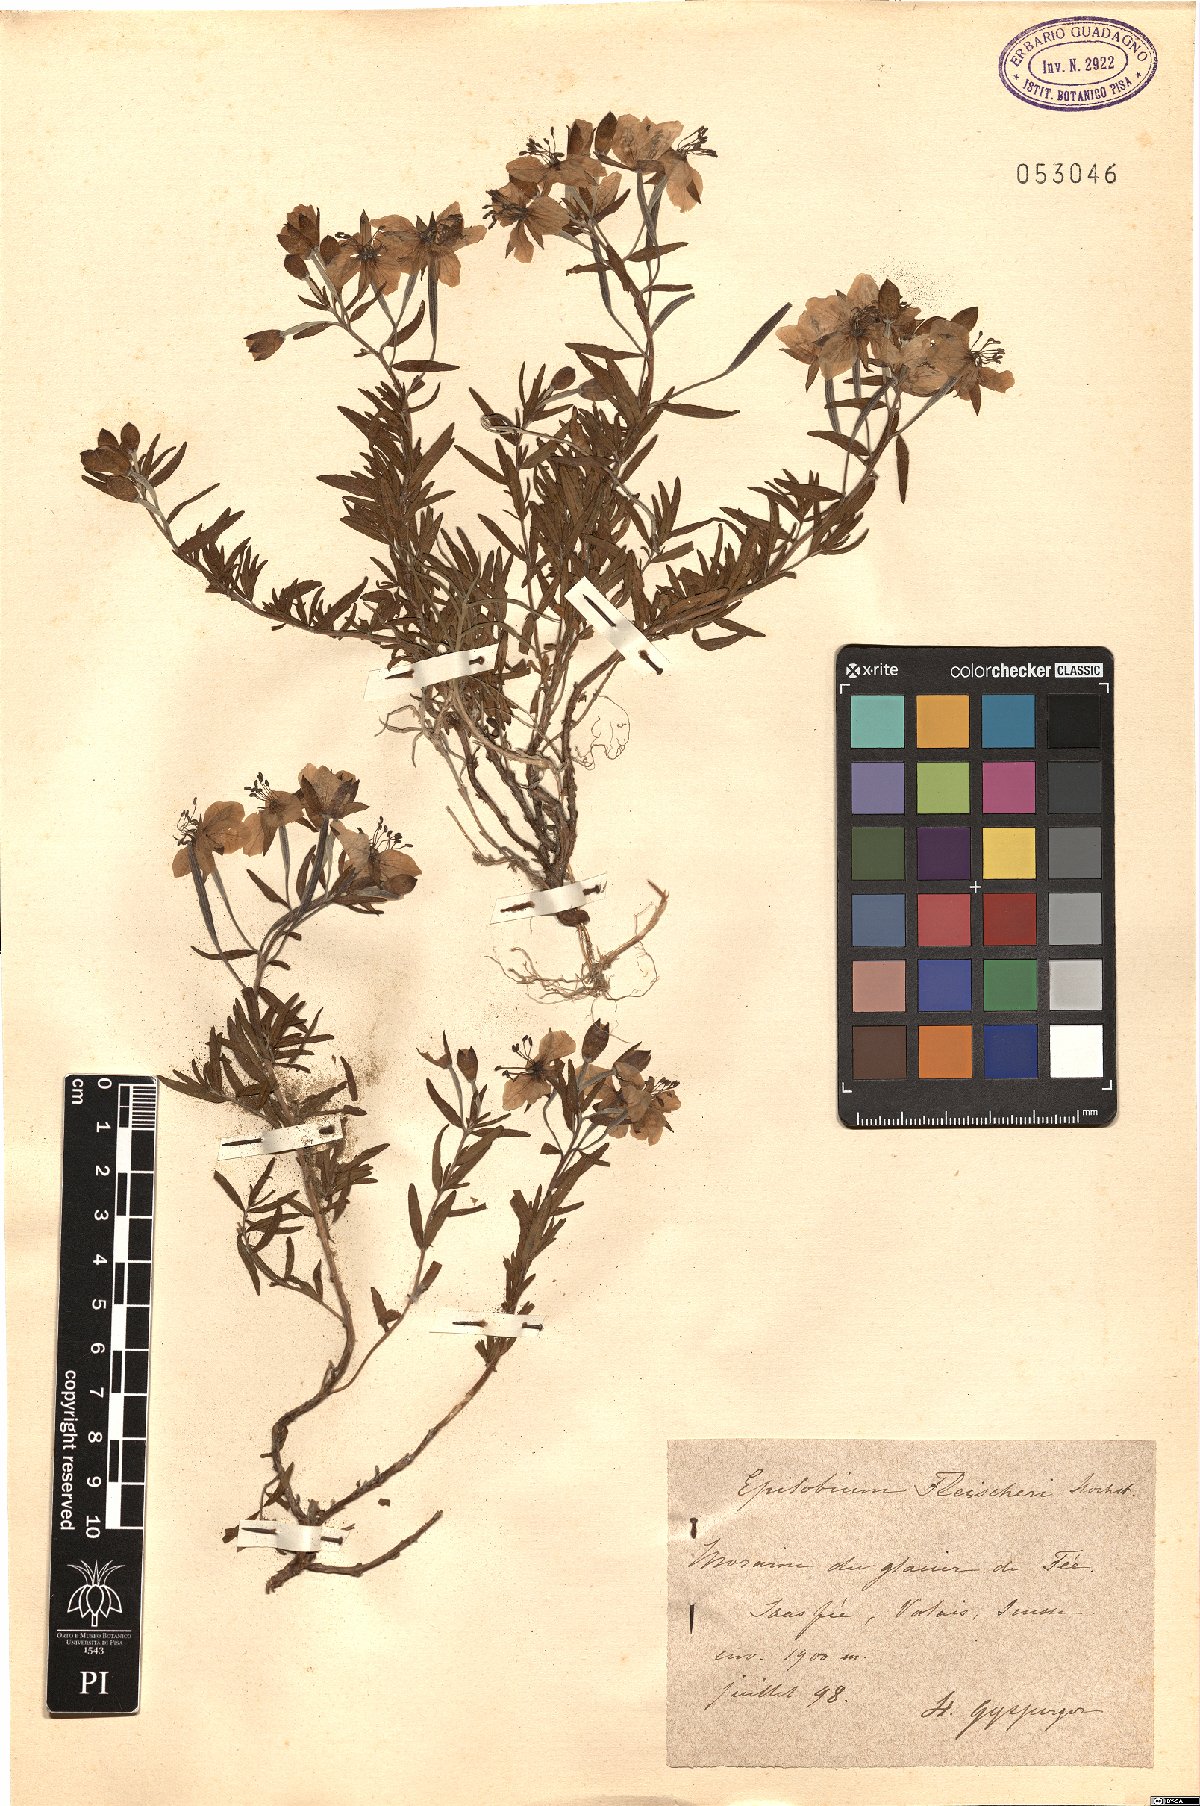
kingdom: Plantae
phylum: Tracheophyta
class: Magnoliopsida
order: Myrtales
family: Onagraceae
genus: Chamaenerion
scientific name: Chamaenerion fleischeri
